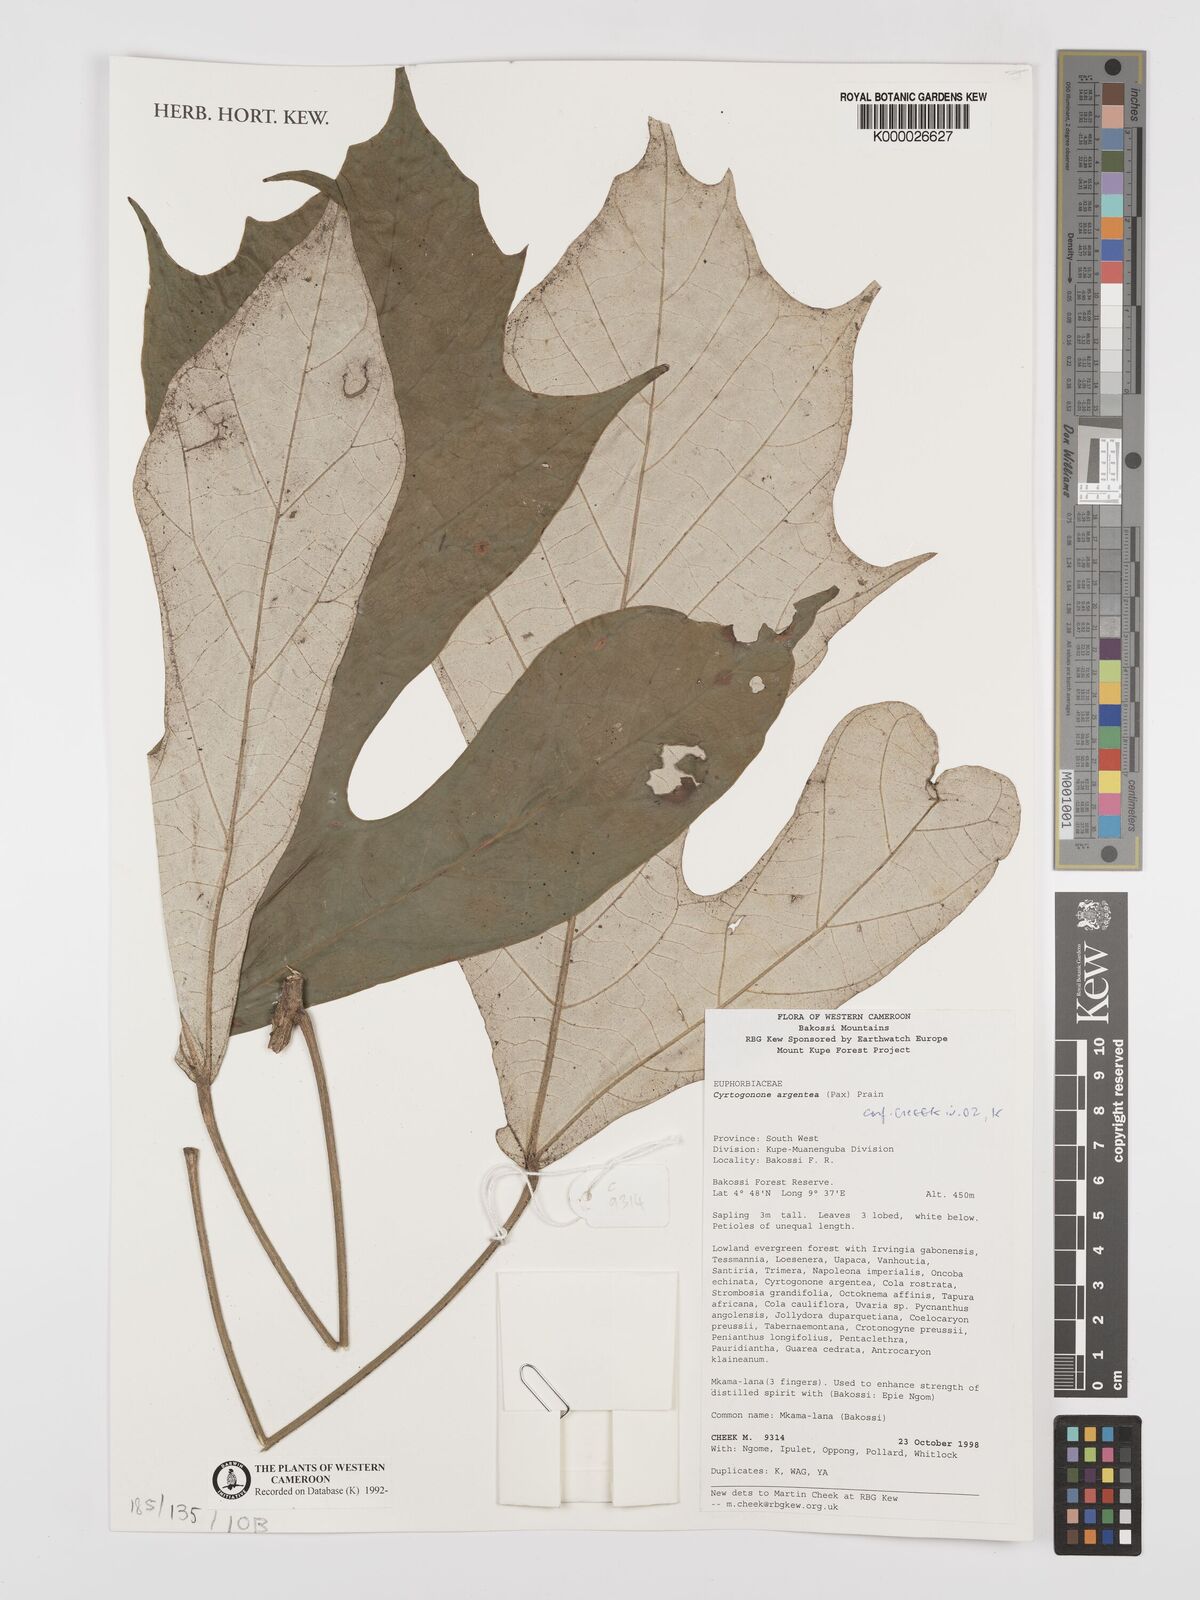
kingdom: Plantae
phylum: Tracheophyta
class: Magnoliopsida
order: Malpighiales
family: Euphorbiaceae
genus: Cyrtogonone
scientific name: Cyrtogonone argentea
